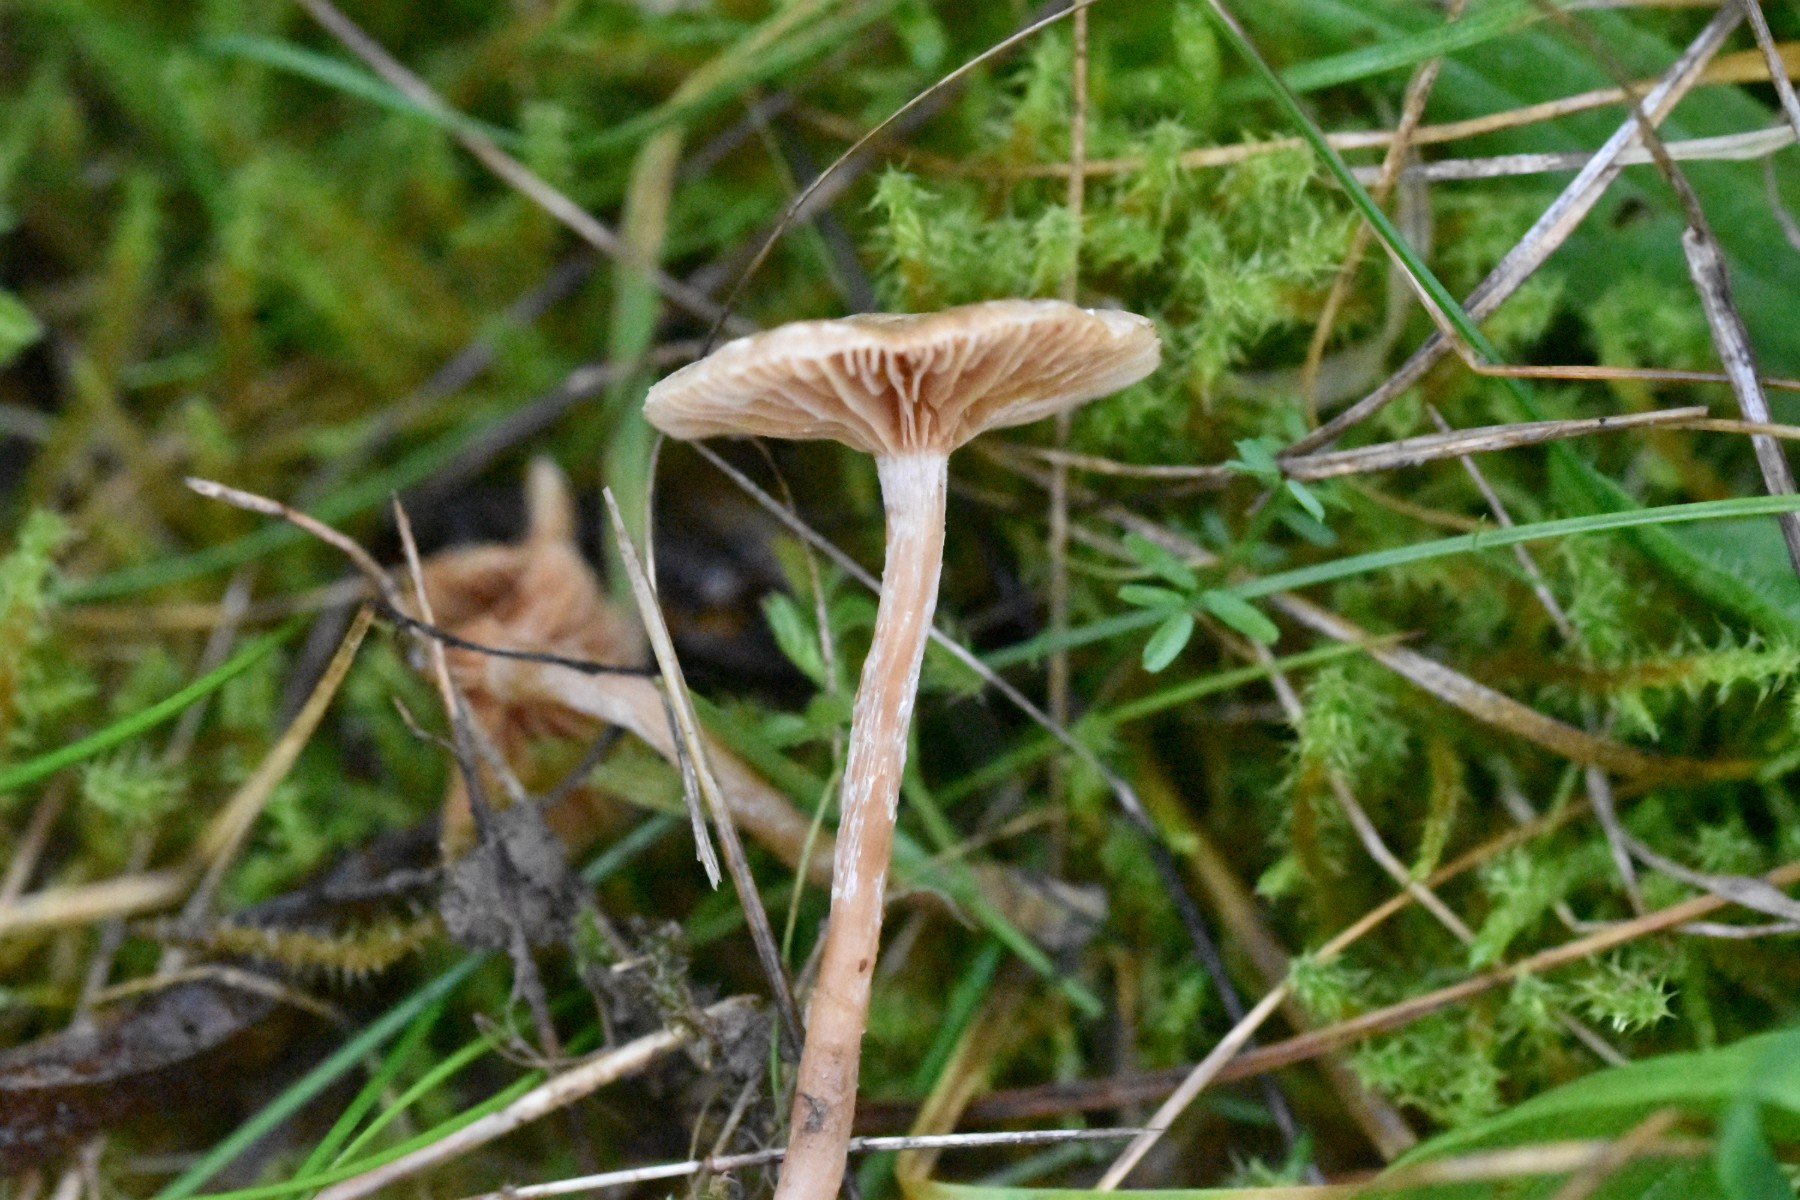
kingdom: Fungi
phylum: Basidiomycota
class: Agaricomycetes
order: Agaricales
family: Tubariaceae
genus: Tubaria
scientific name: Tubaria
